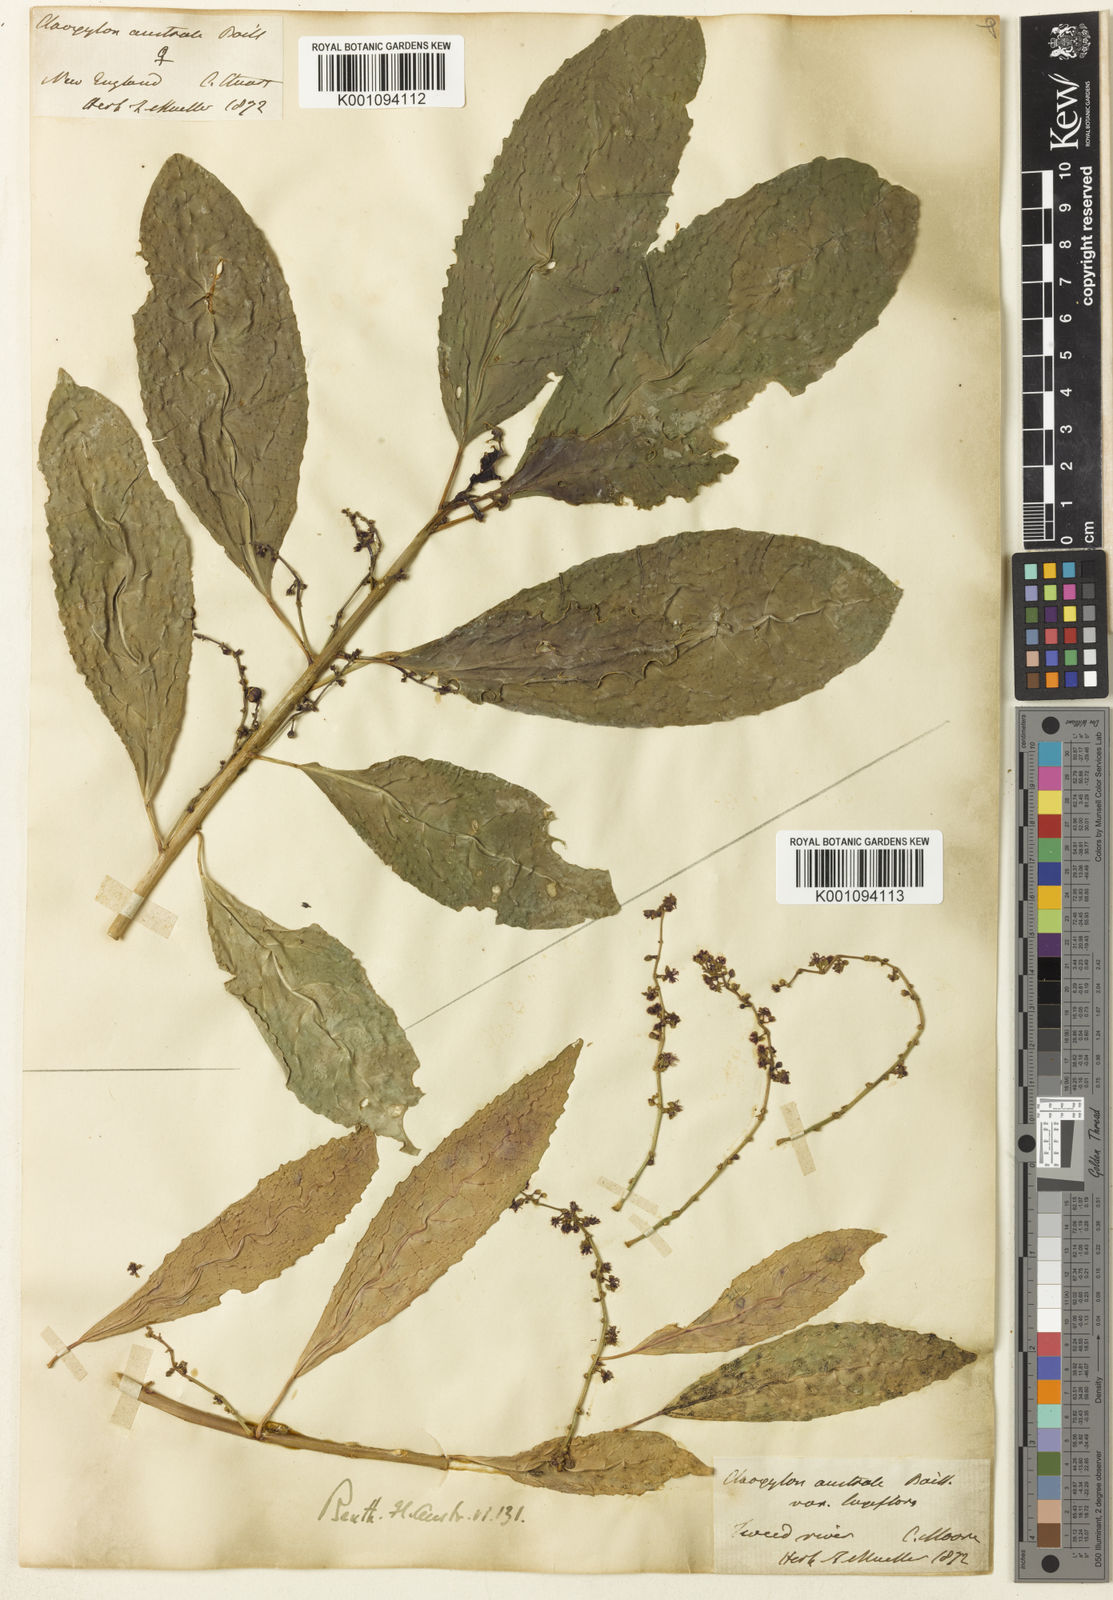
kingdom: Plantae
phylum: Tracheophyta
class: Magnoliopsida
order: Malpighiales
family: Euphorbiaceae
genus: Claoxylon
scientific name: Claoxylon
